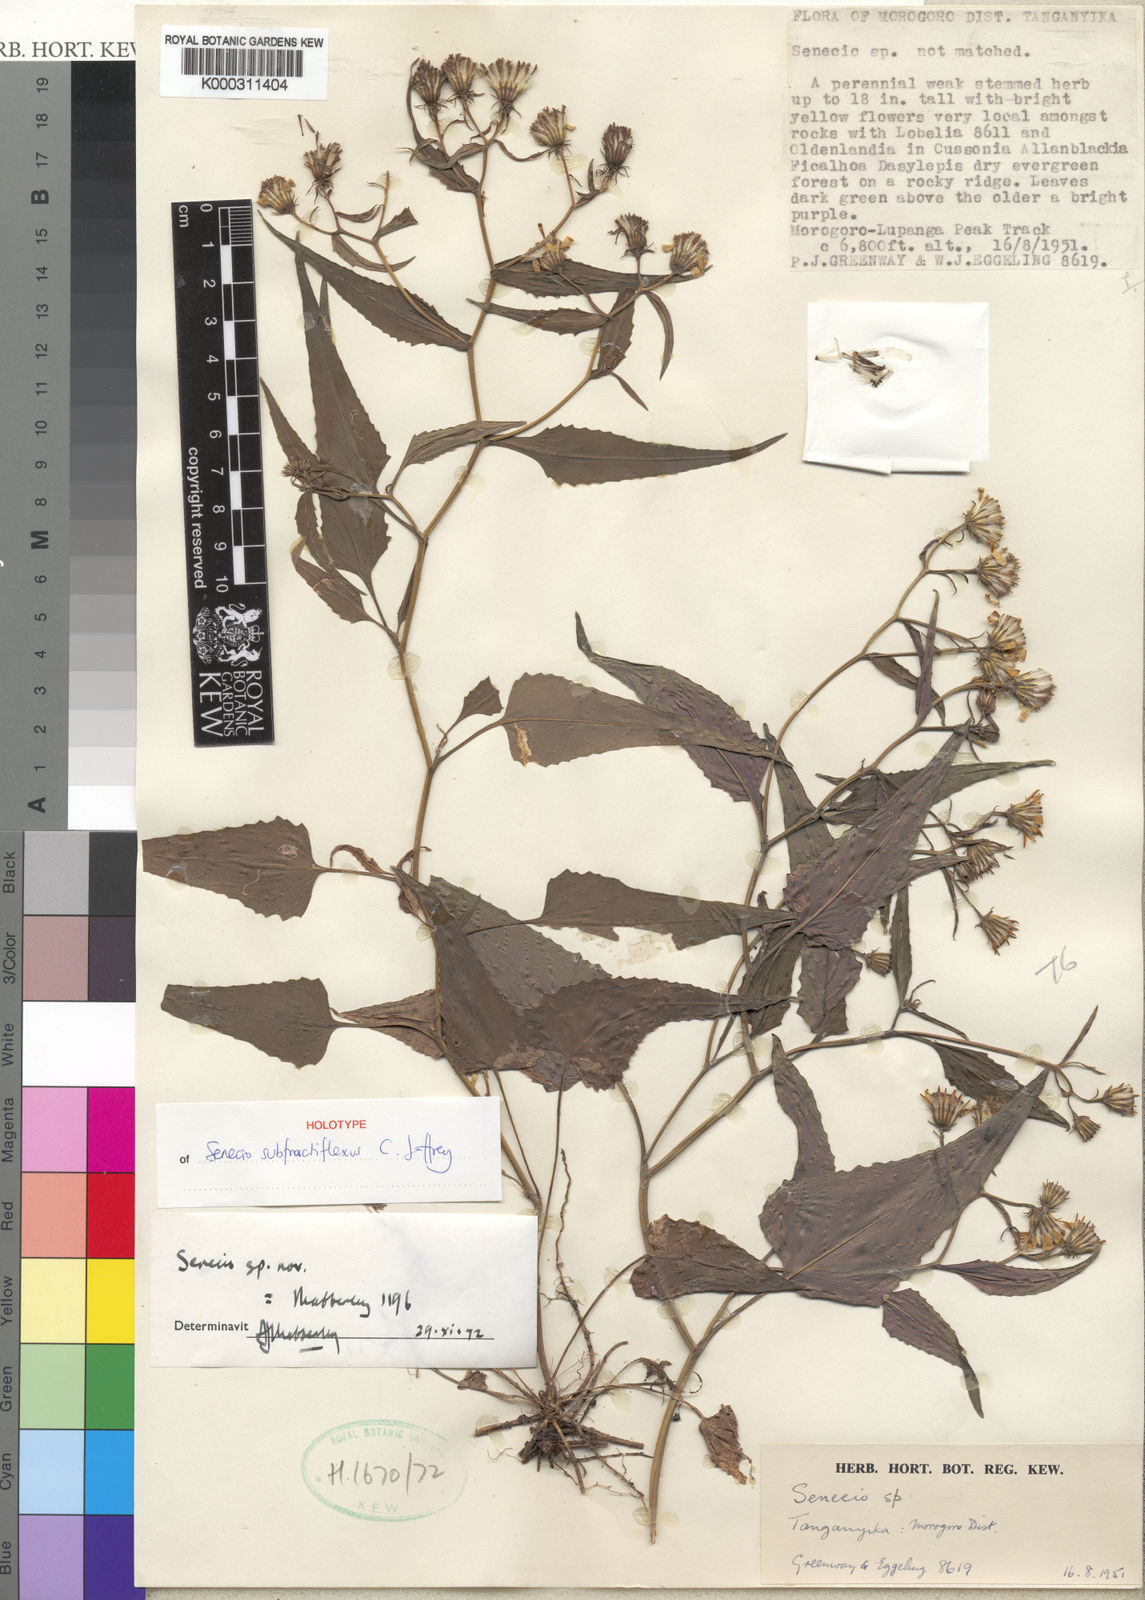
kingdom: Plantae
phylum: Tracheophyta
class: Magnoliopsida
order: Asterales
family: Asteraceae
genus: Senecio
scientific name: Senecio subfractiflexus
